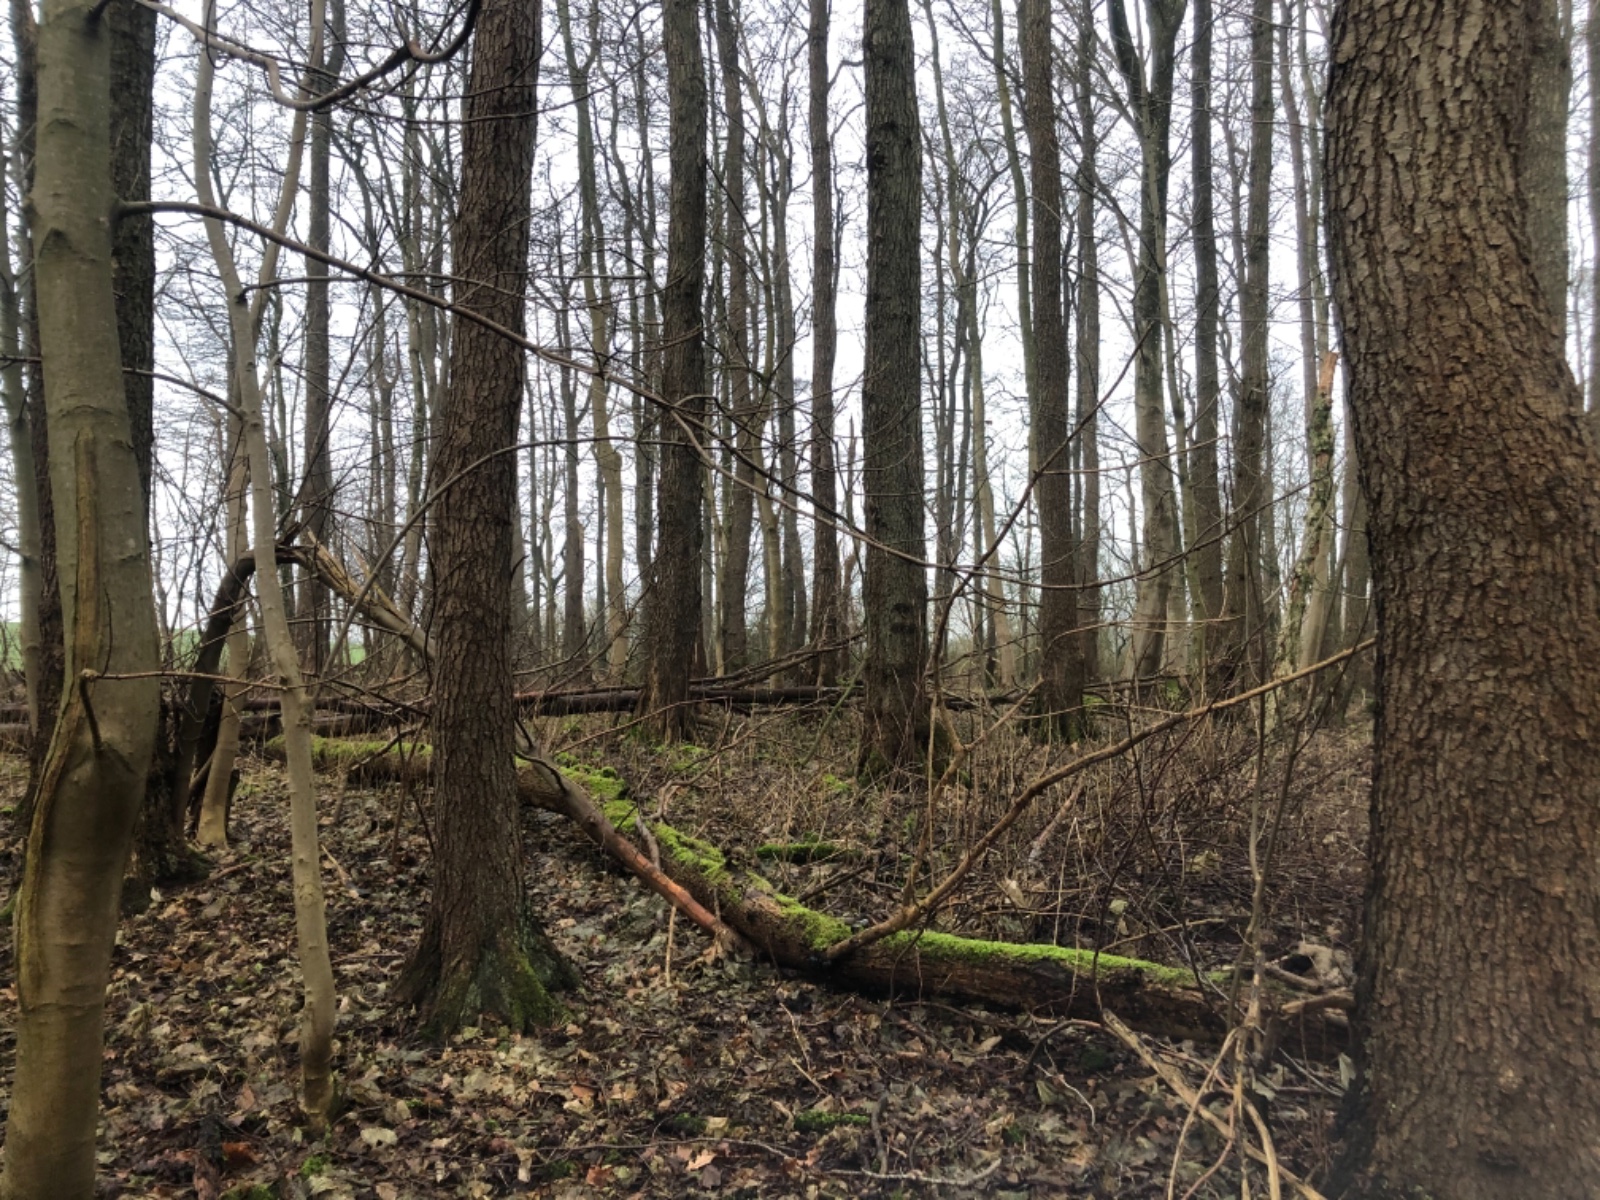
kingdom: Fungi
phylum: Ascomycota
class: Sordariomycetes
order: Xylariales
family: Hypoxylaceae
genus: Daldinia
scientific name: Daldinia concentrica
